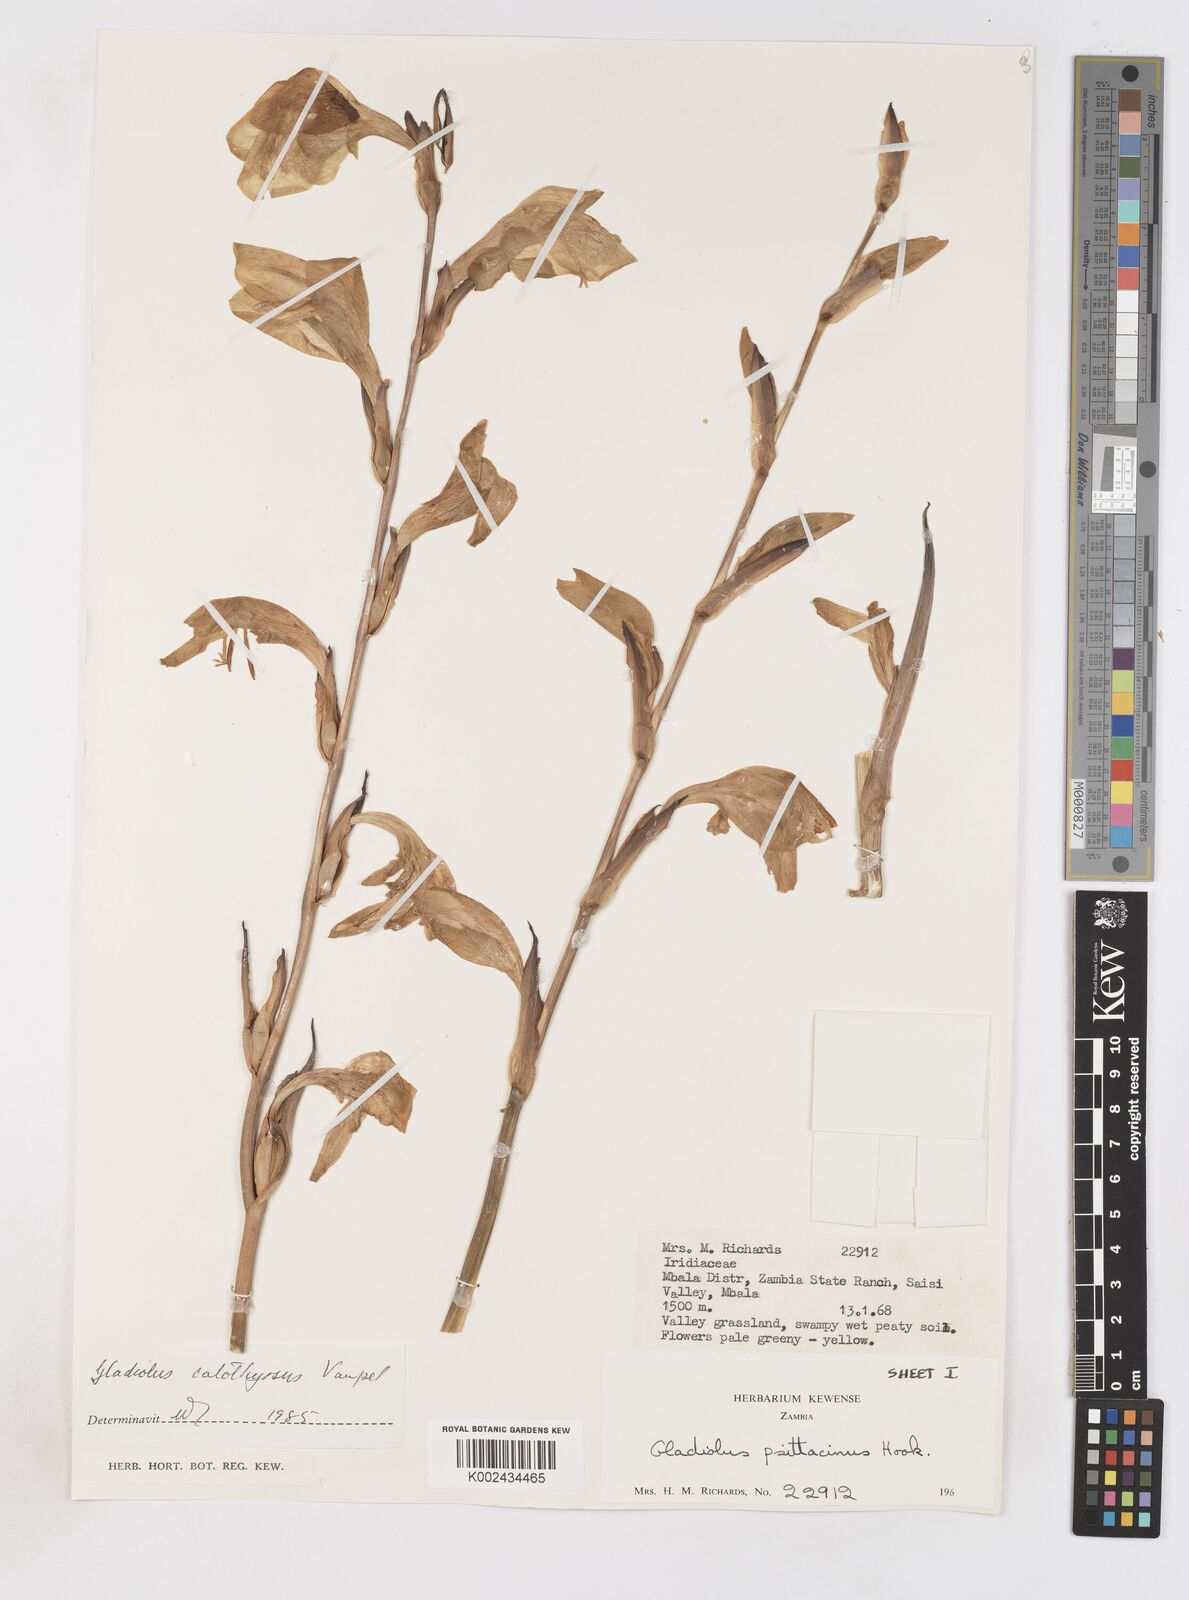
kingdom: Plantae
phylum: Tracheophyta
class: Liliopsida
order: Asparagales
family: Iridaceae
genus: Gladiolus
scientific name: Gladiolus dalenii
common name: Cornflag
